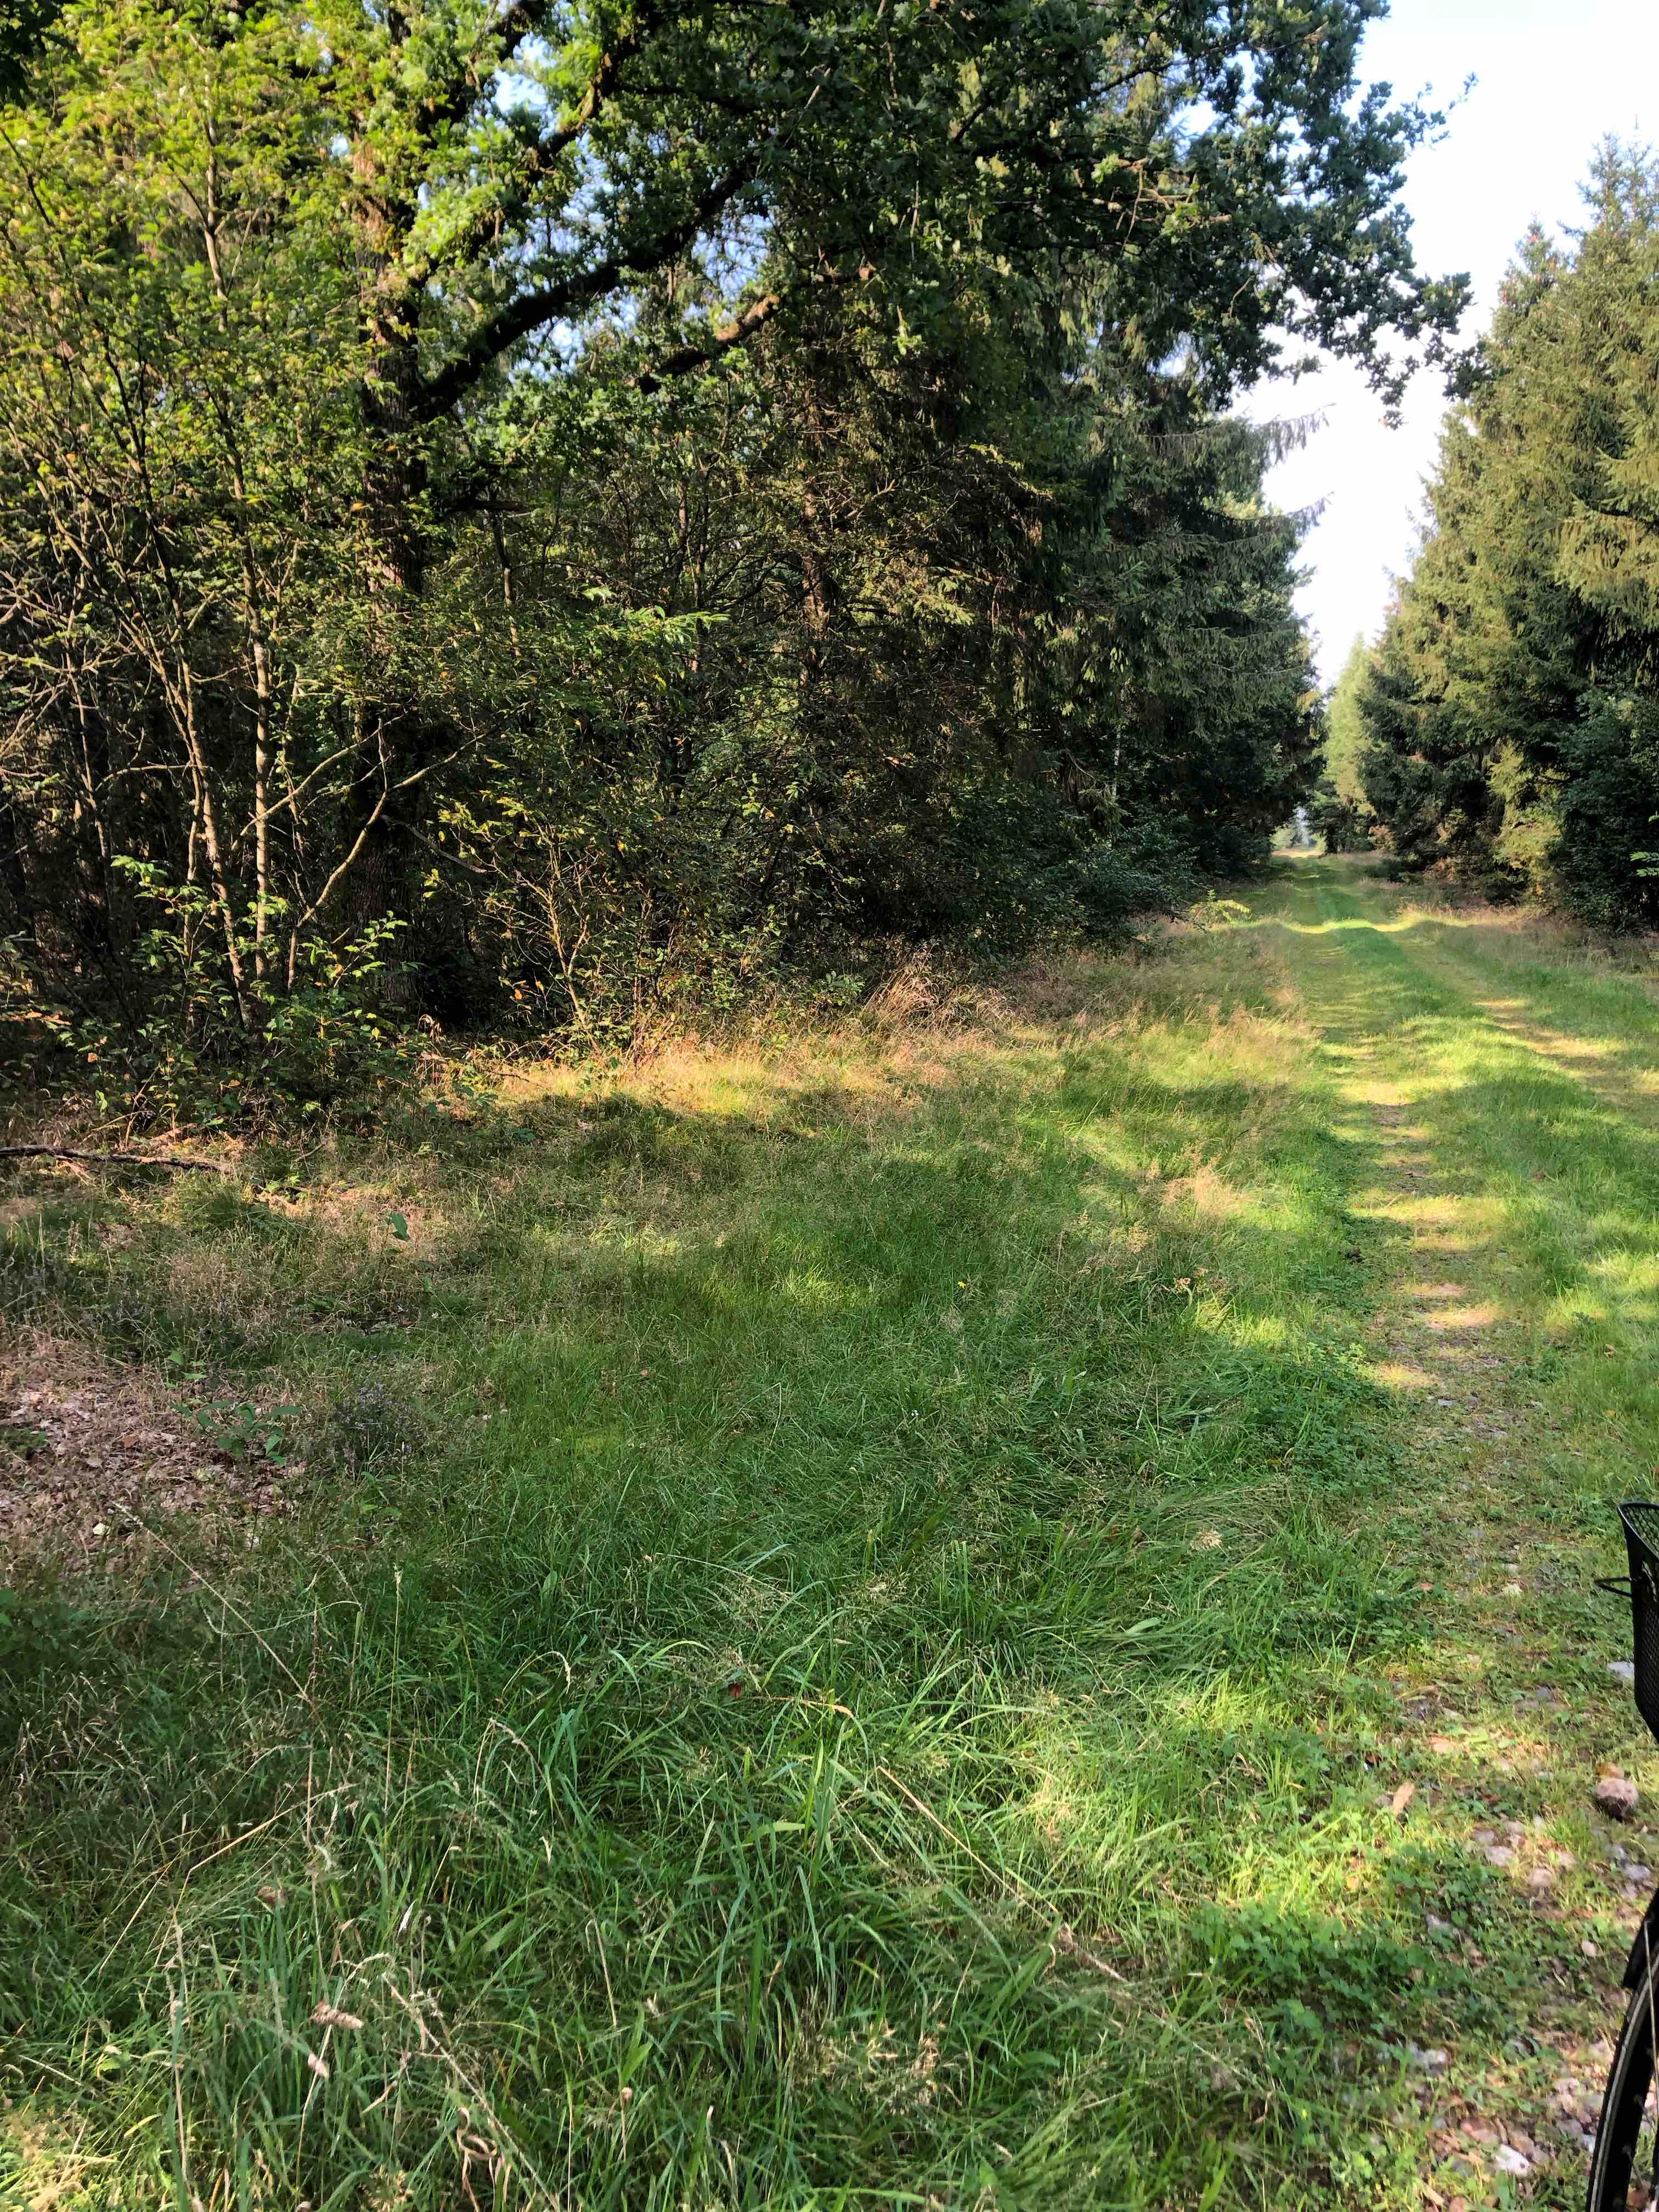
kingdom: Fungi
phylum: Basidiomycota
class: Agaricomycetes
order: Agaricales
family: Cortinariaceae
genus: Cortinarius
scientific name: Cortinarius
